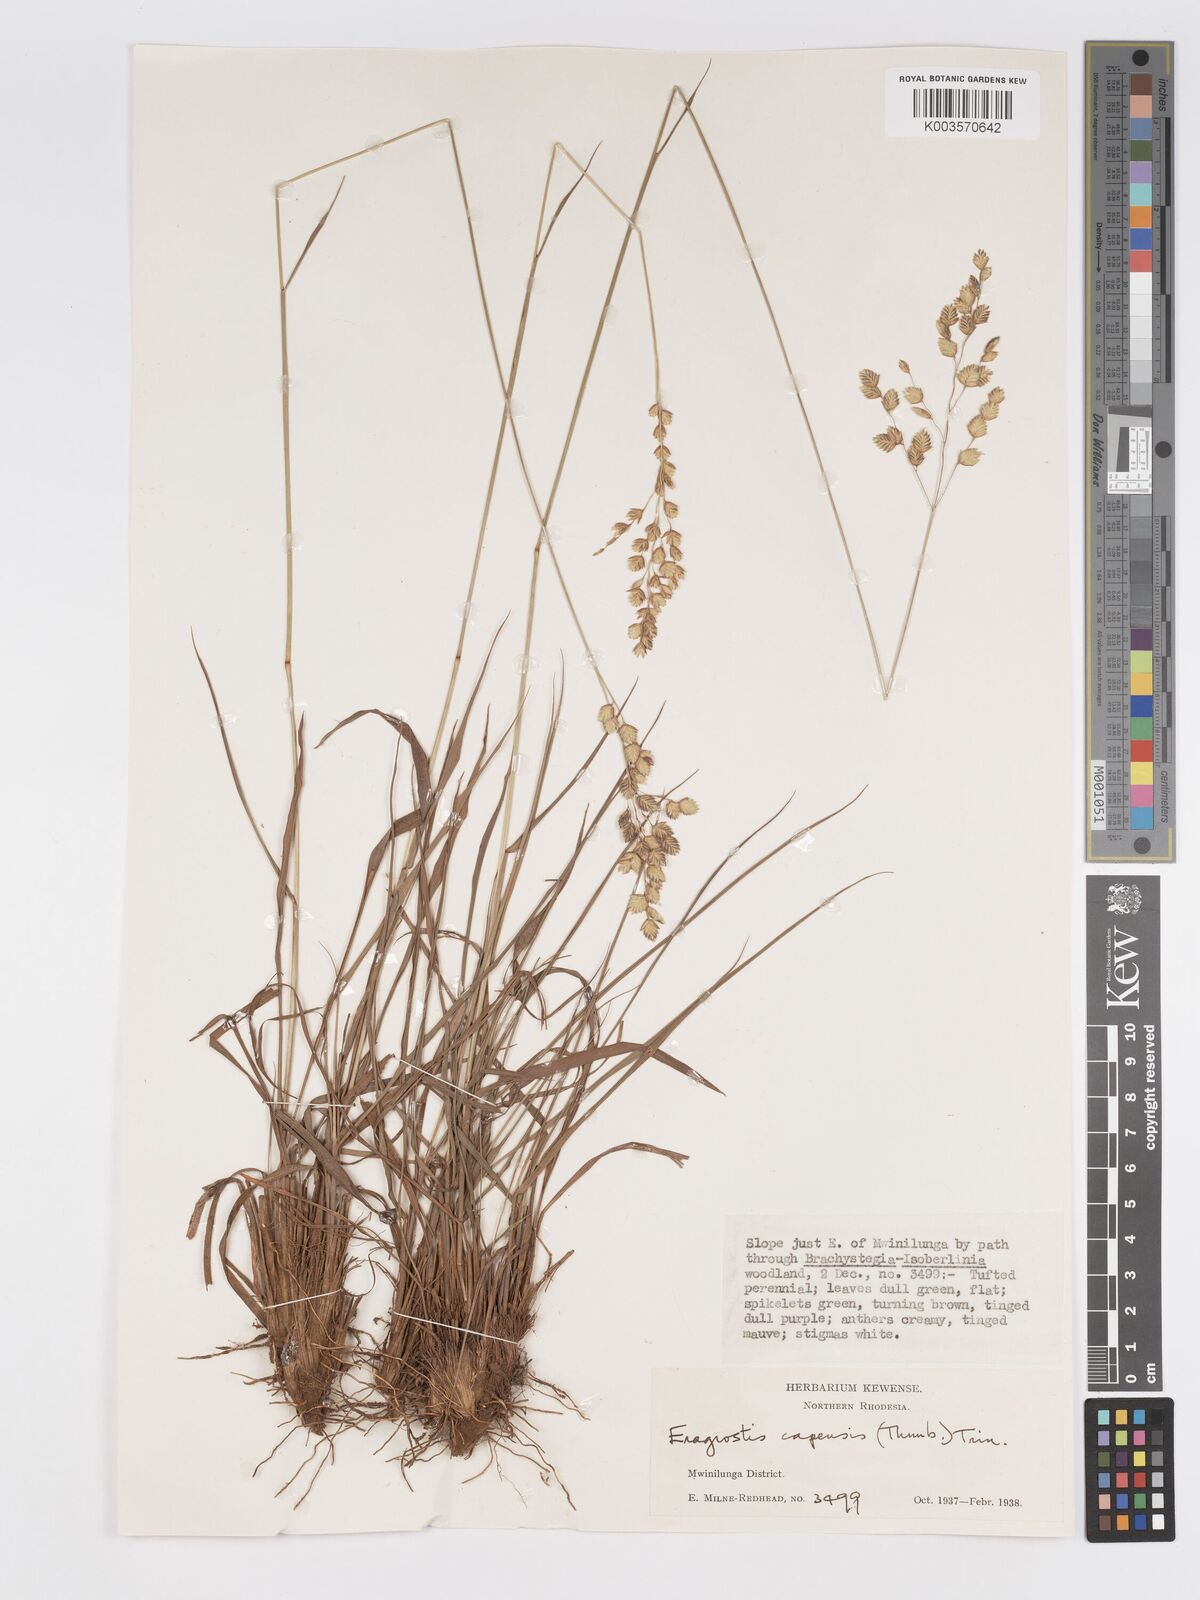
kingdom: Plantae
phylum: Tracheophyta
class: Liliopsida
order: Poales
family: Poaceae
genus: Eragrostis
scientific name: Eragrostis capensis
